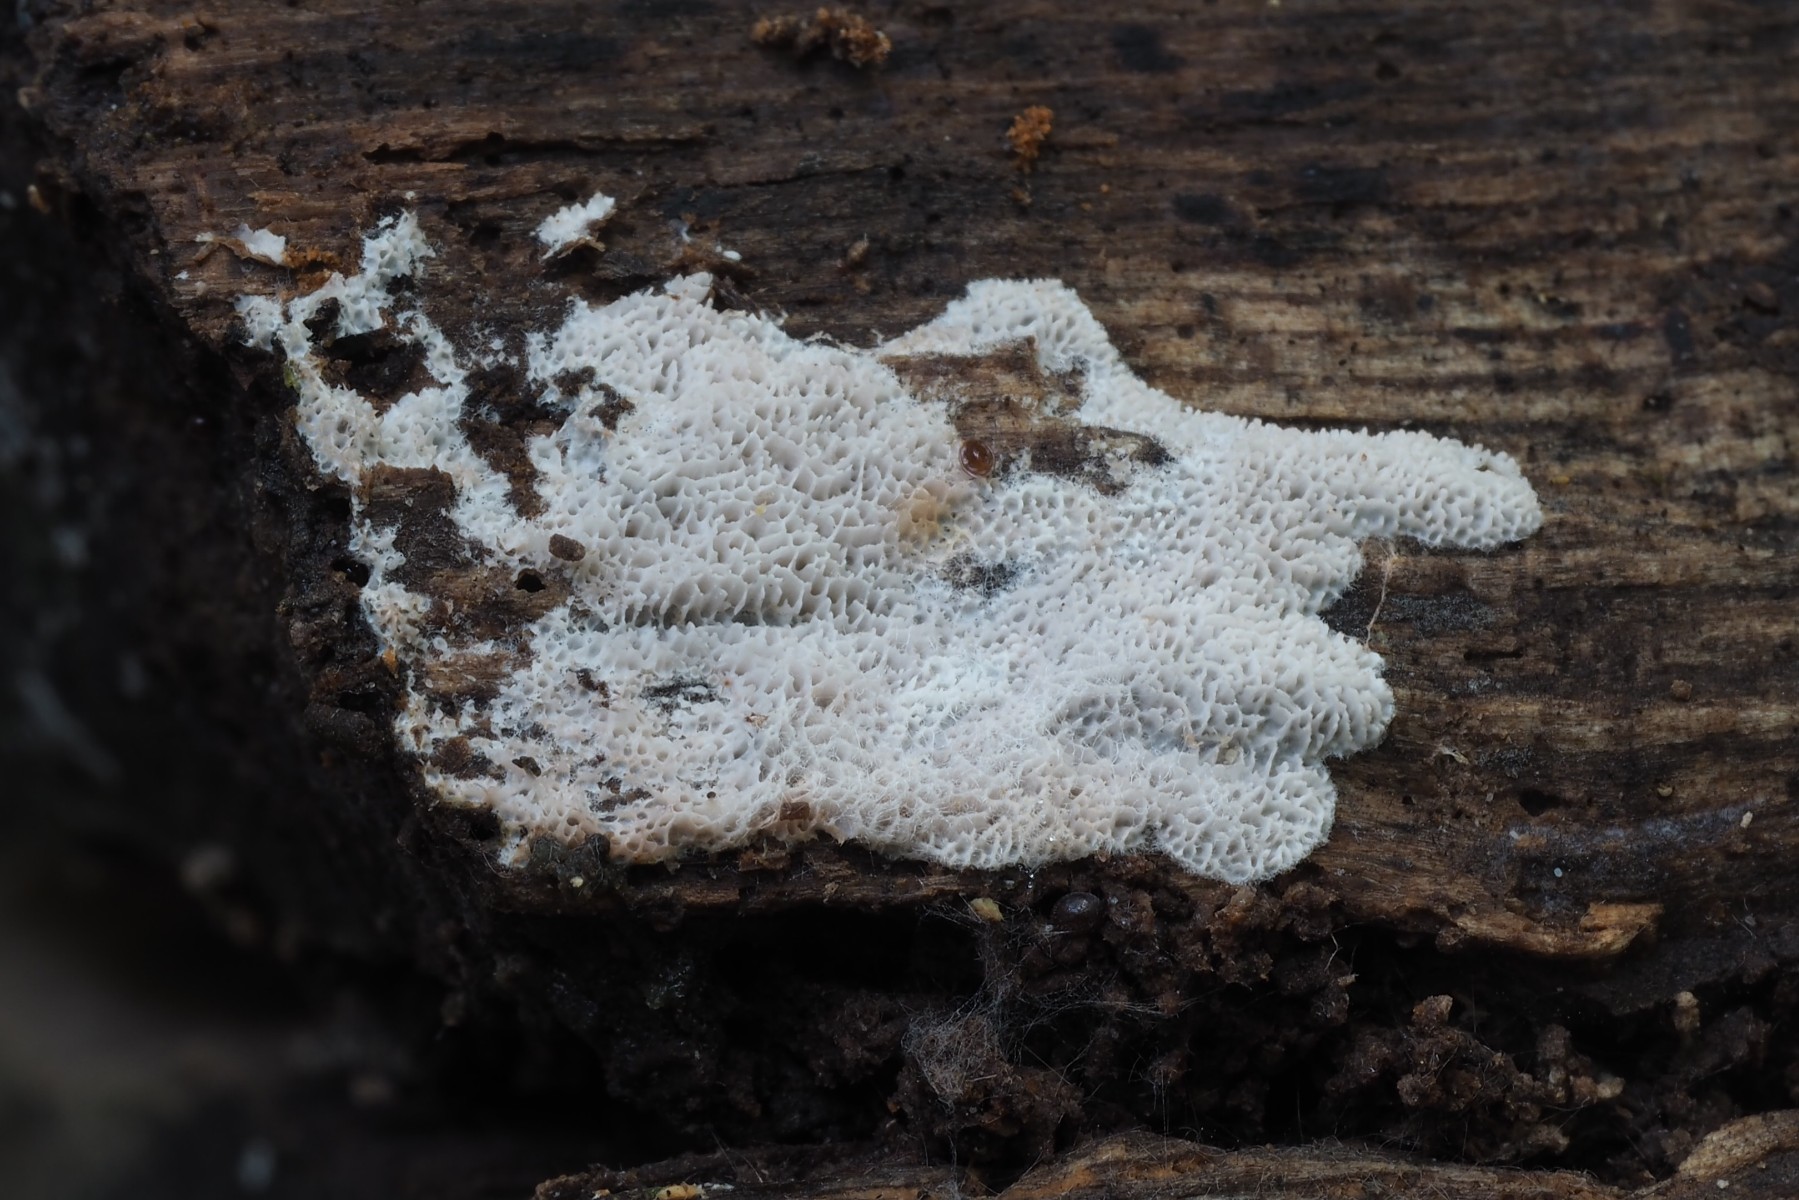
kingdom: Fungi
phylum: Basidiomycota
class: Agaricomycetes
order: Polyporales
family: Irpicaceae
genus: Ceriporia
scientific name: Ceriporia viridans
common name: foranderlig voksporesvamp
